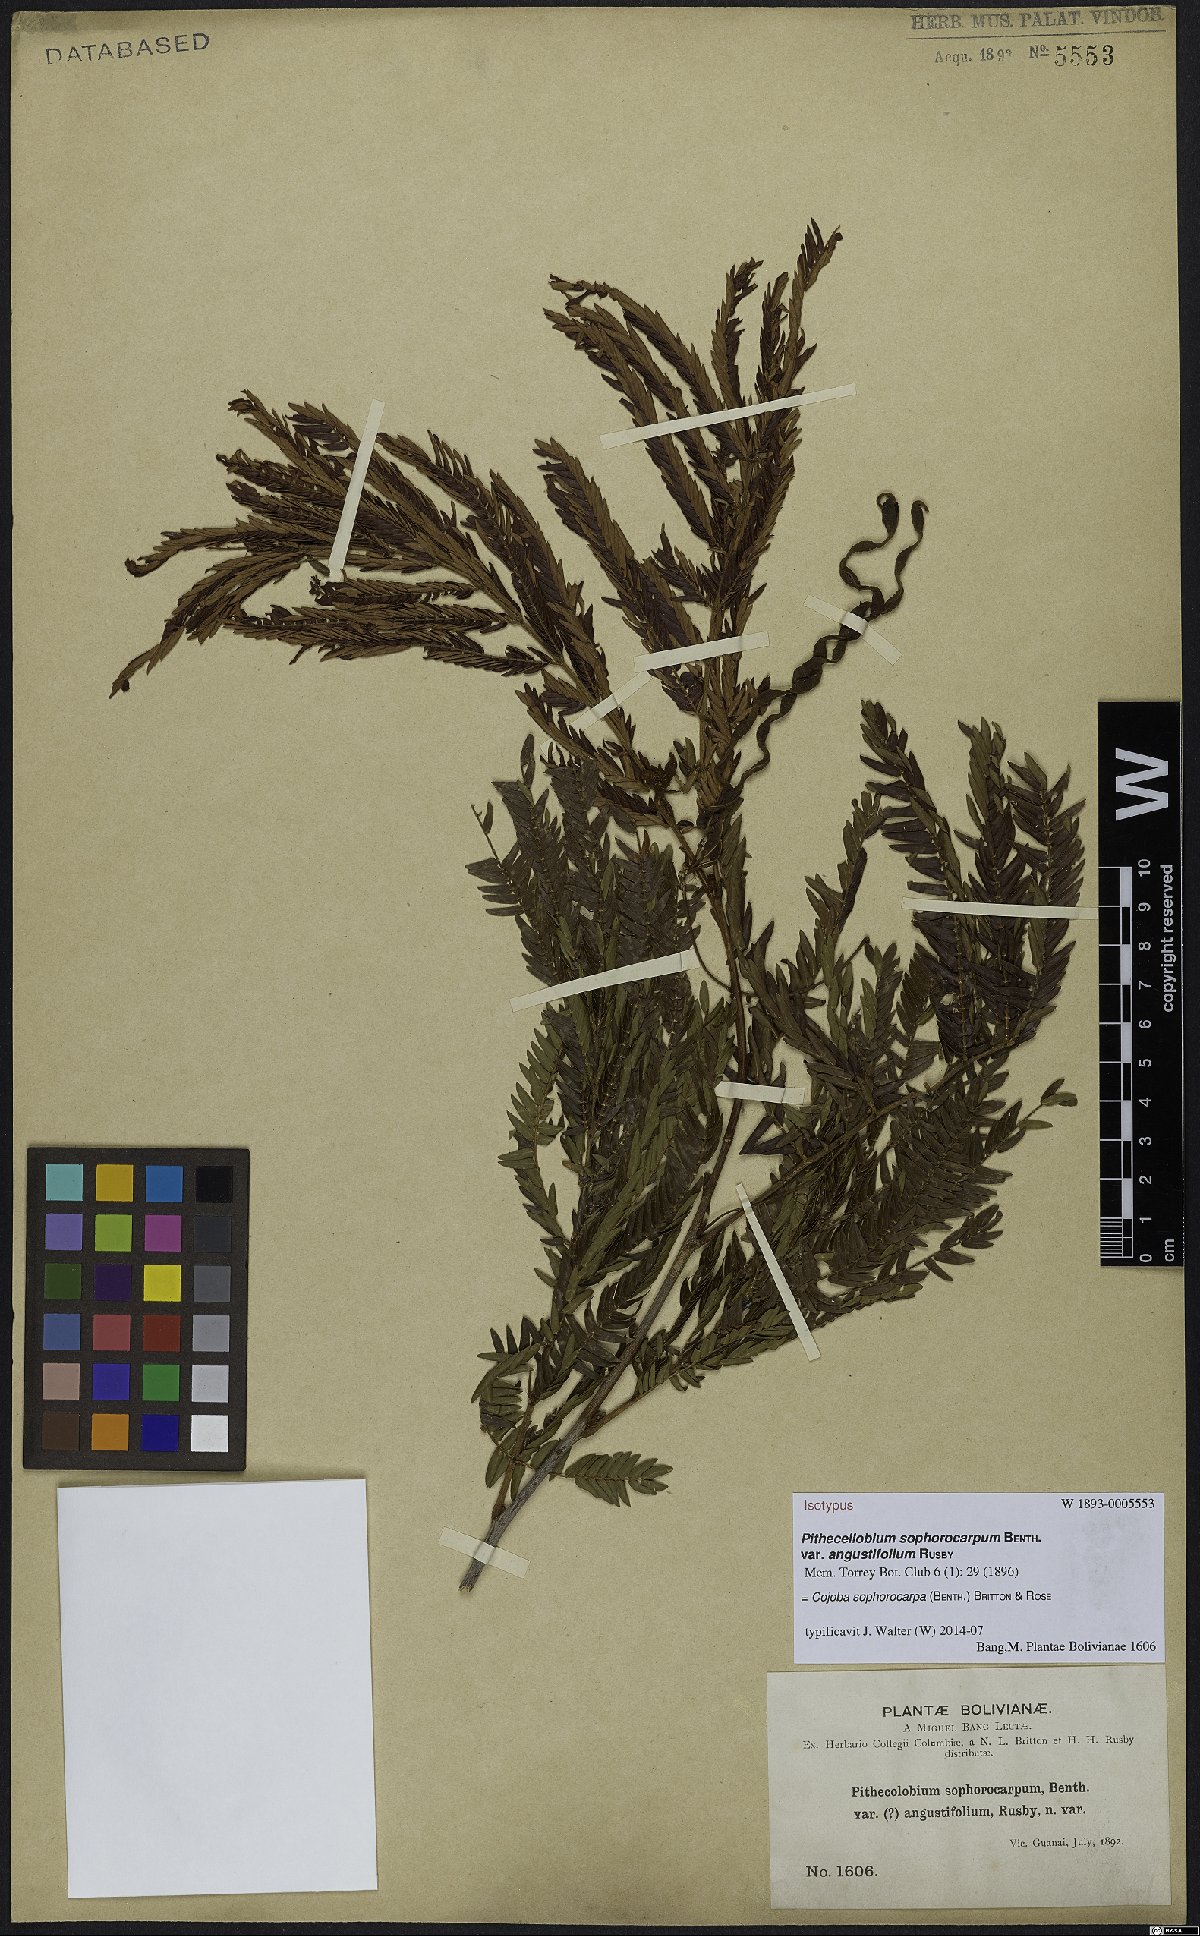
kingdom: Plantae
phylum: Tracheophyta
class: Magnoliopsida
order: Fabales
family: Fabaceae
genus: Cojoba
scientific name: Cojoba sophorocarpa
